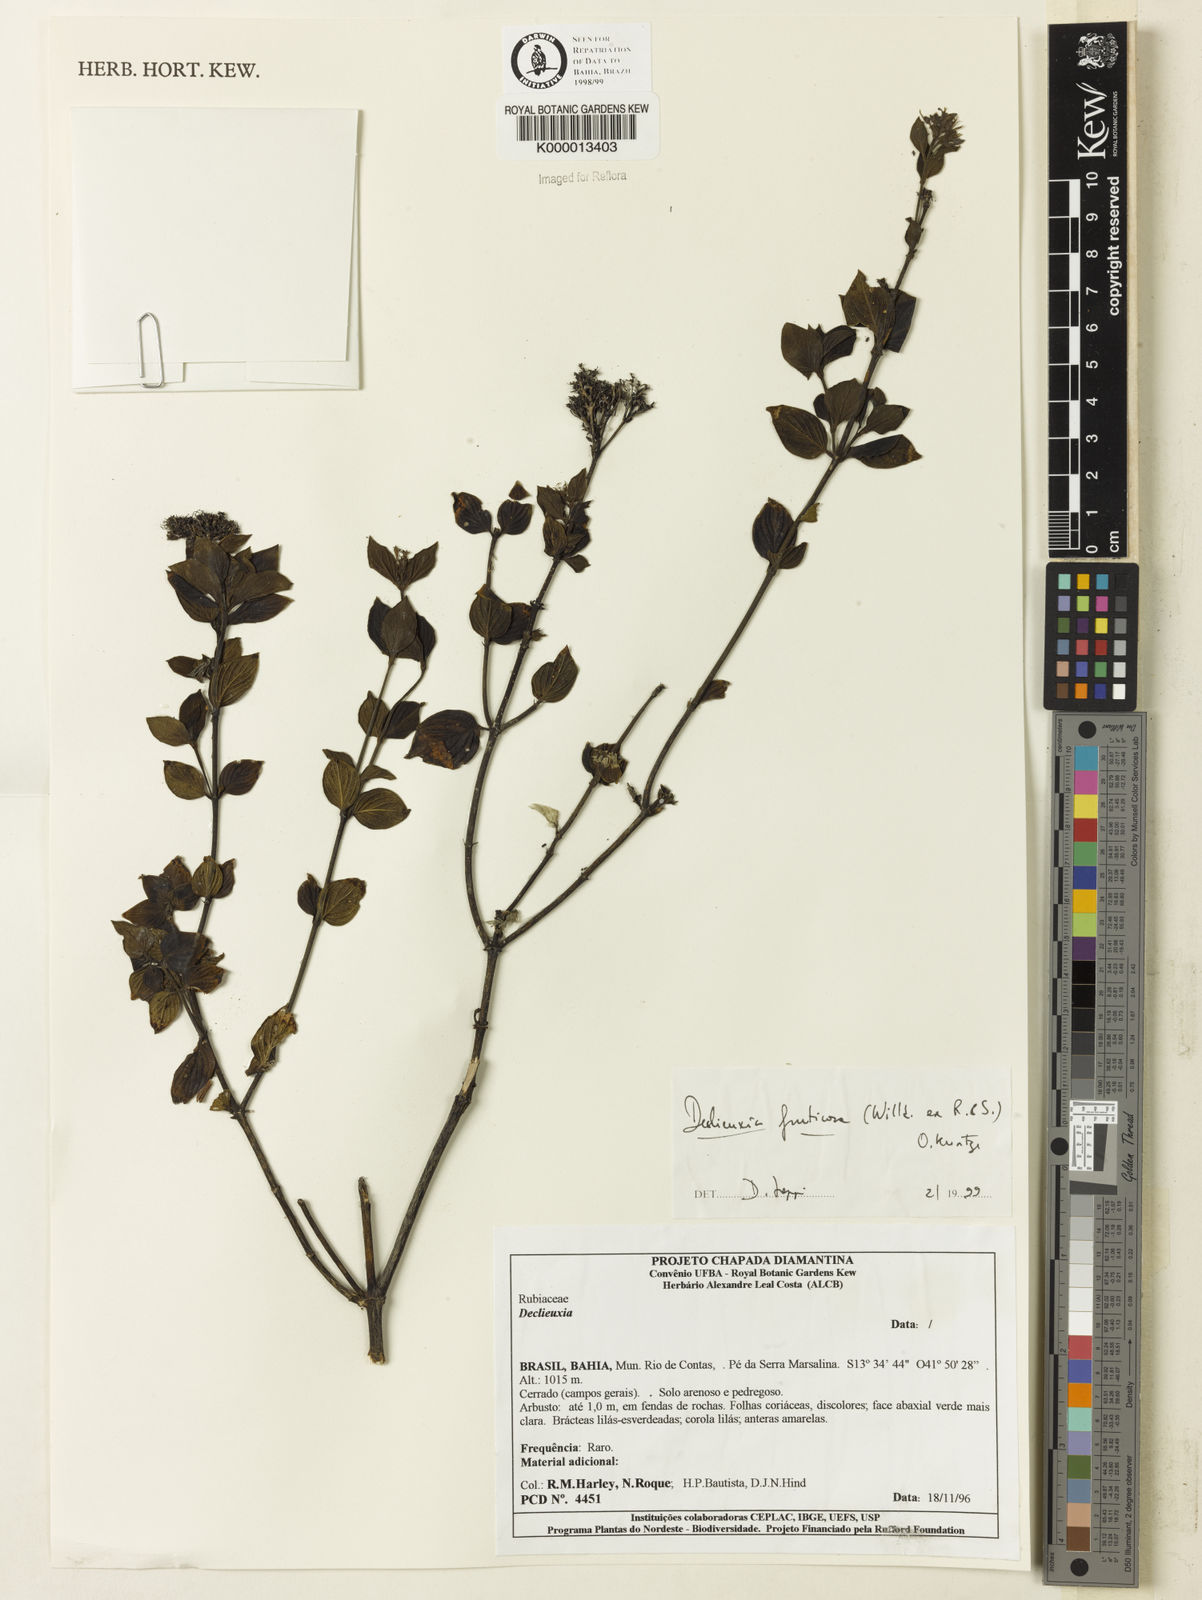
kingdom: Plantae
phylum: Tracheophyta
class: Magnoliopsida
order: Gentianales
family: Rubiaceae
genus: Declieuxia
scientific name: Declieuxia fruticosa
